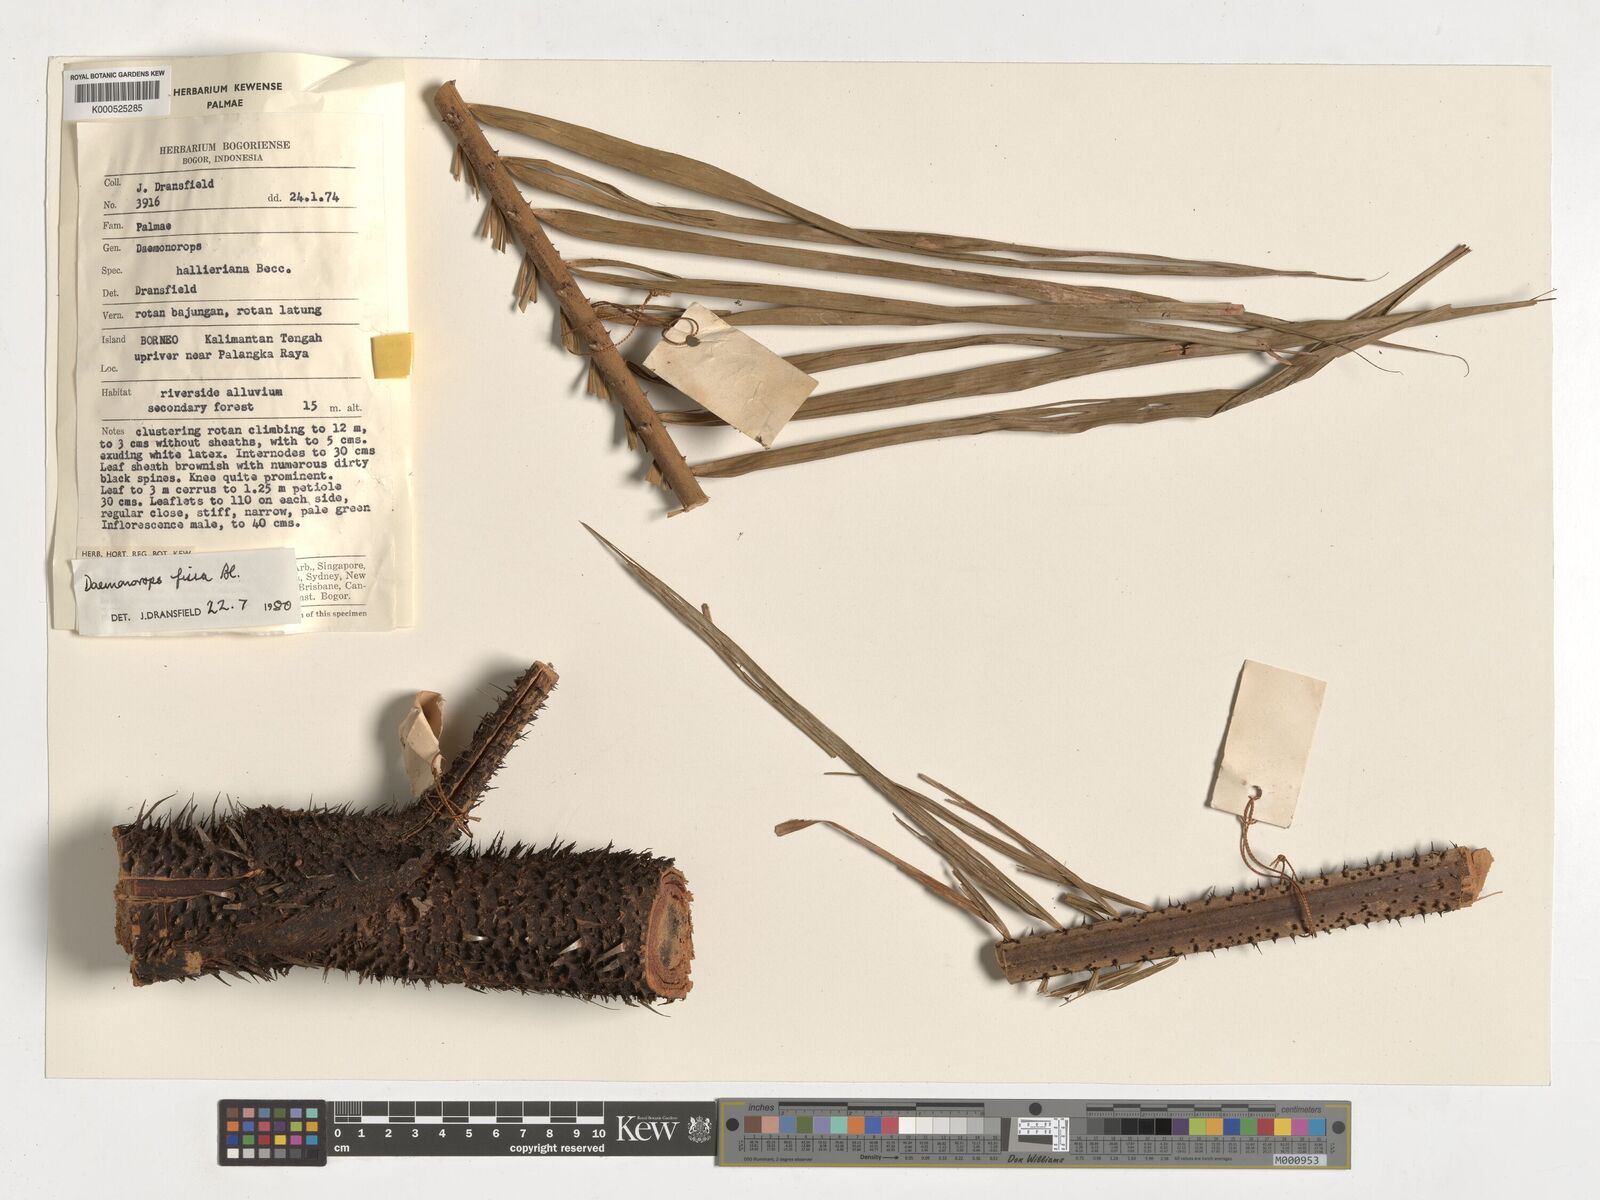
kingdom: Plantae
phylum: Tracheophyta
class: Liliopsida
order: Arecales
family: Arecaceae
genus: Calamus
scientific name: Calamus melanochaetes
